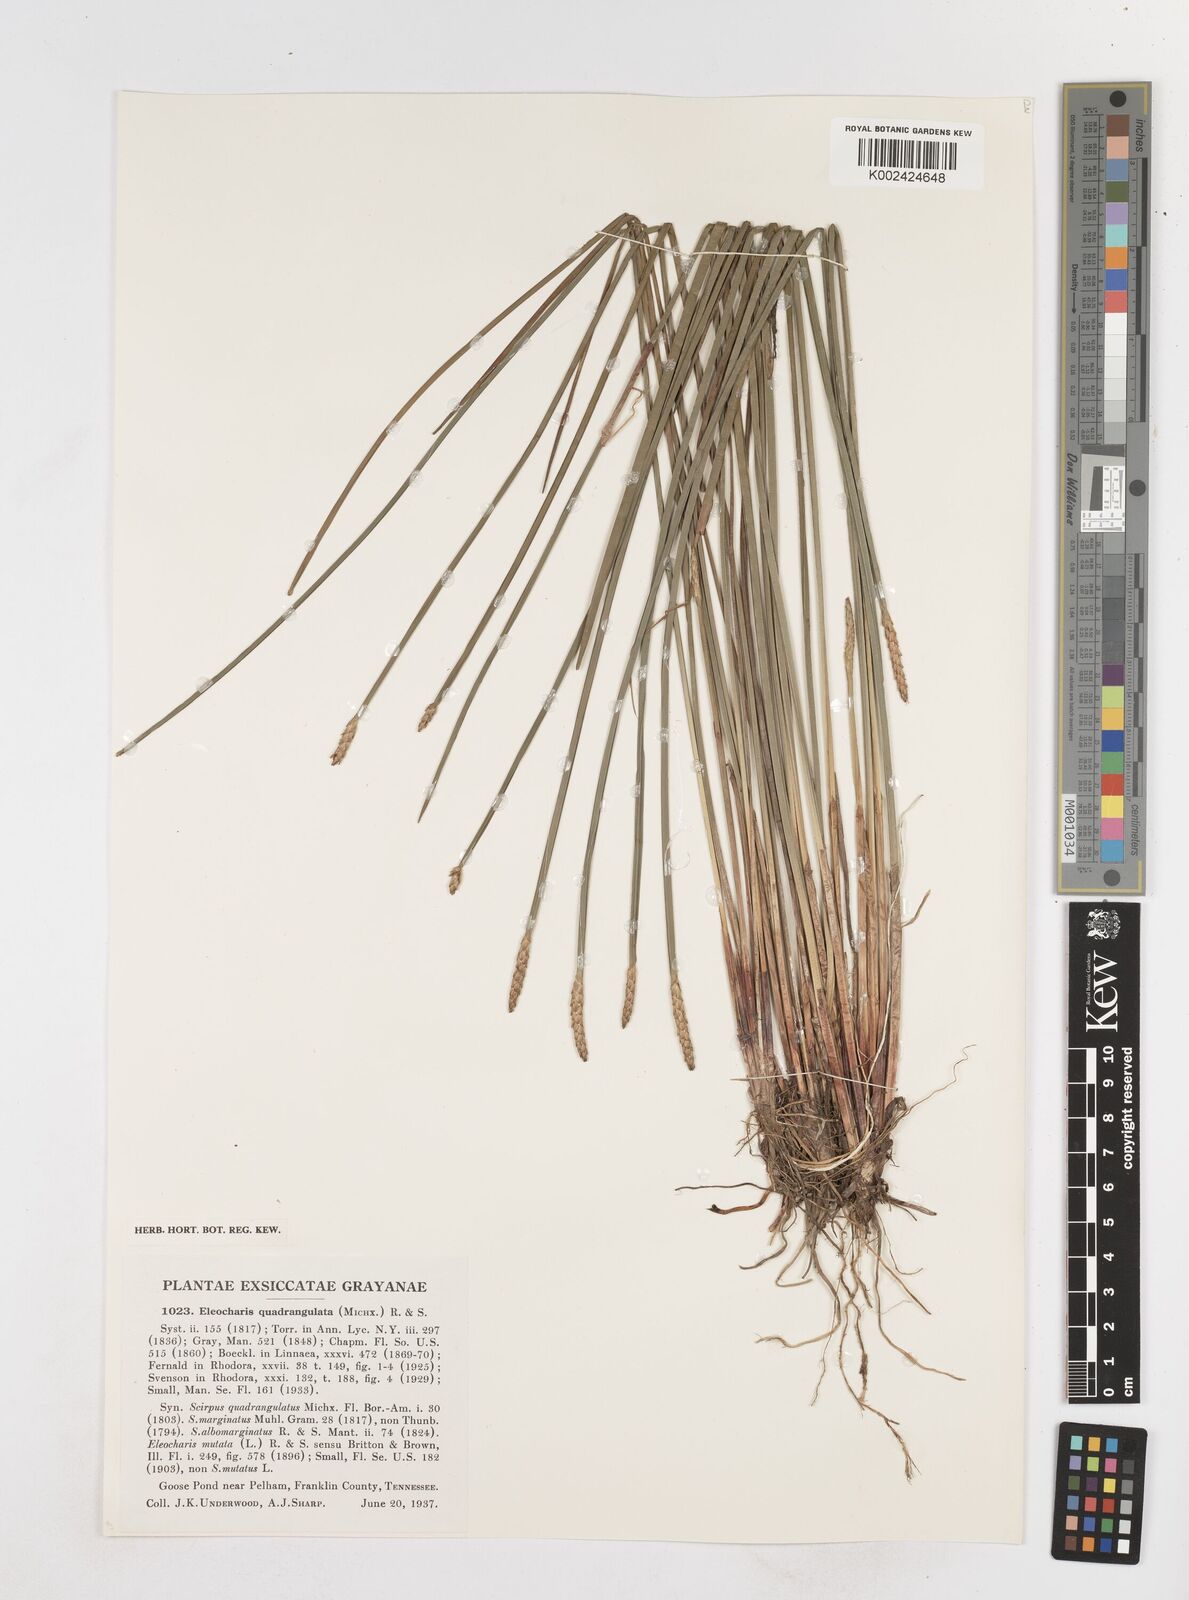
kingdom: Plantae
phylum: Tracheophyta
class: Liliopsida
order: Poales
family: Cyperaceae
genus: Eleocharis
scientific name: Eleocharis quadrangulata
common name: Square-stem spike-rush
